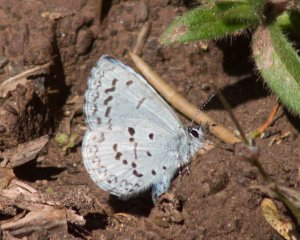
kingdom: Animalia
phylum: Arthropoda
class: Insecta
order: Lepidoptera
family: Lycaenidae
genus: Celastrina
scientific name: Celastrina ladon
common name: Spring Azure
